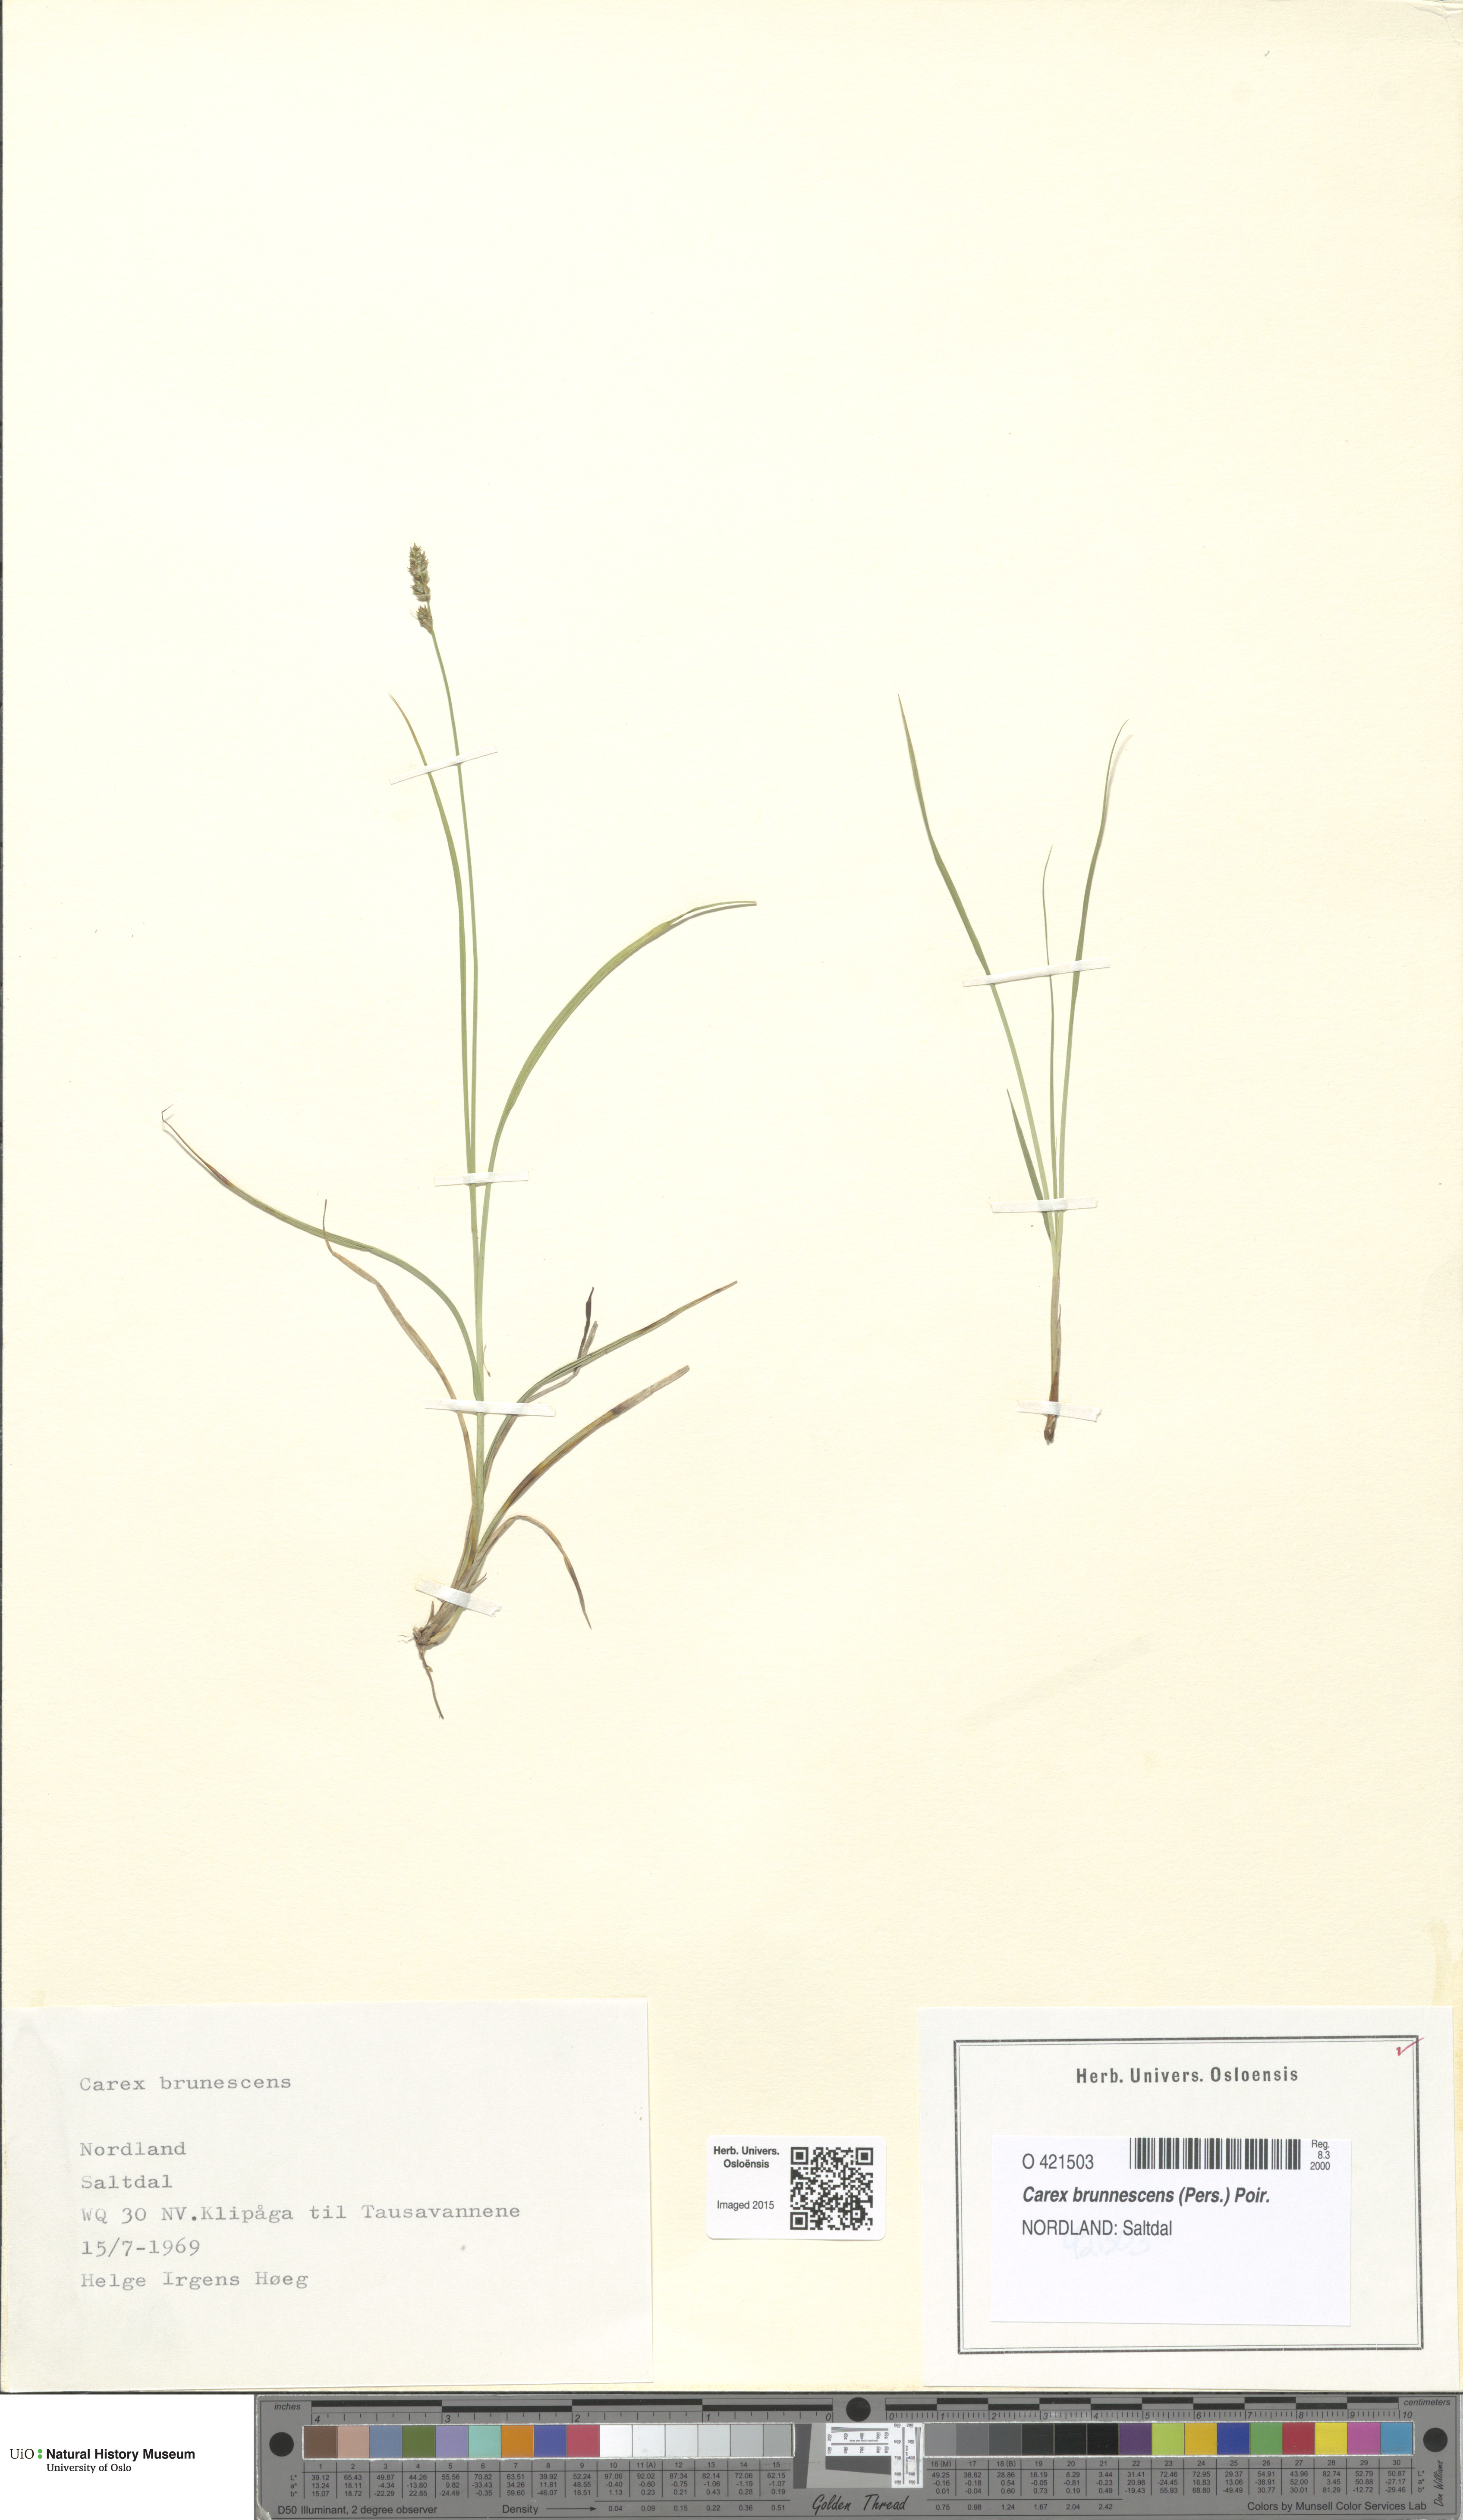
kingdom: Plantae
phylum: Tracheophyta
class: Liliopsida
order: Poales
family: Cyperaceae
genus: Carex
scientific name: Carex brunnescens
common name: Brown sedge
